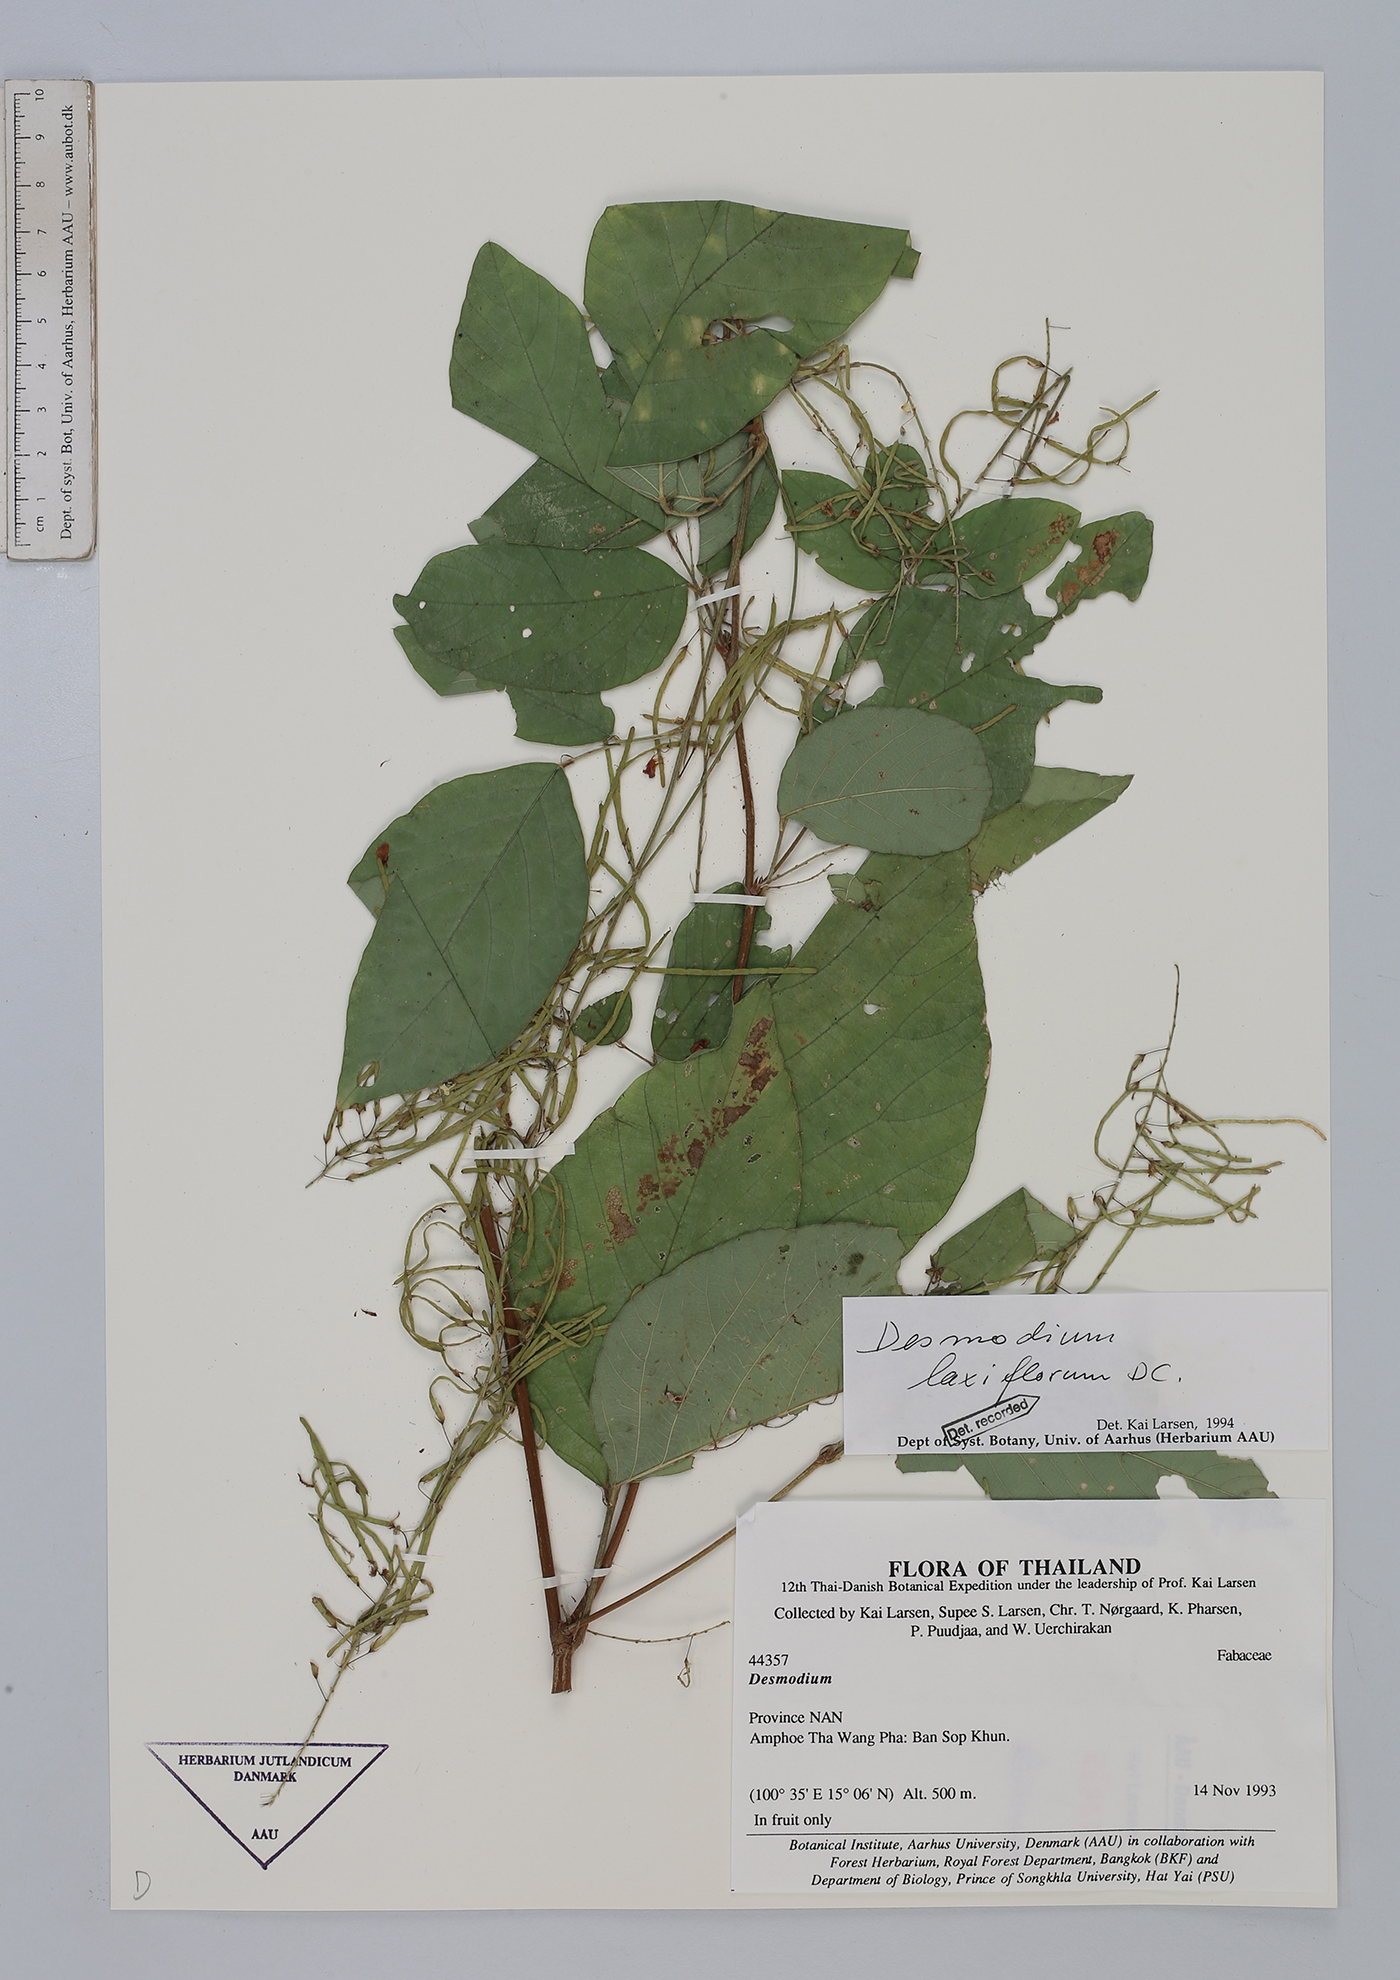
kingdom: Plantae
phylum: Tracheophyta
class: Magnoliopsida
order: Fabales
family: Fabaceae
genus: Sohmaea
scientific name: Sohmaea laxiflora
